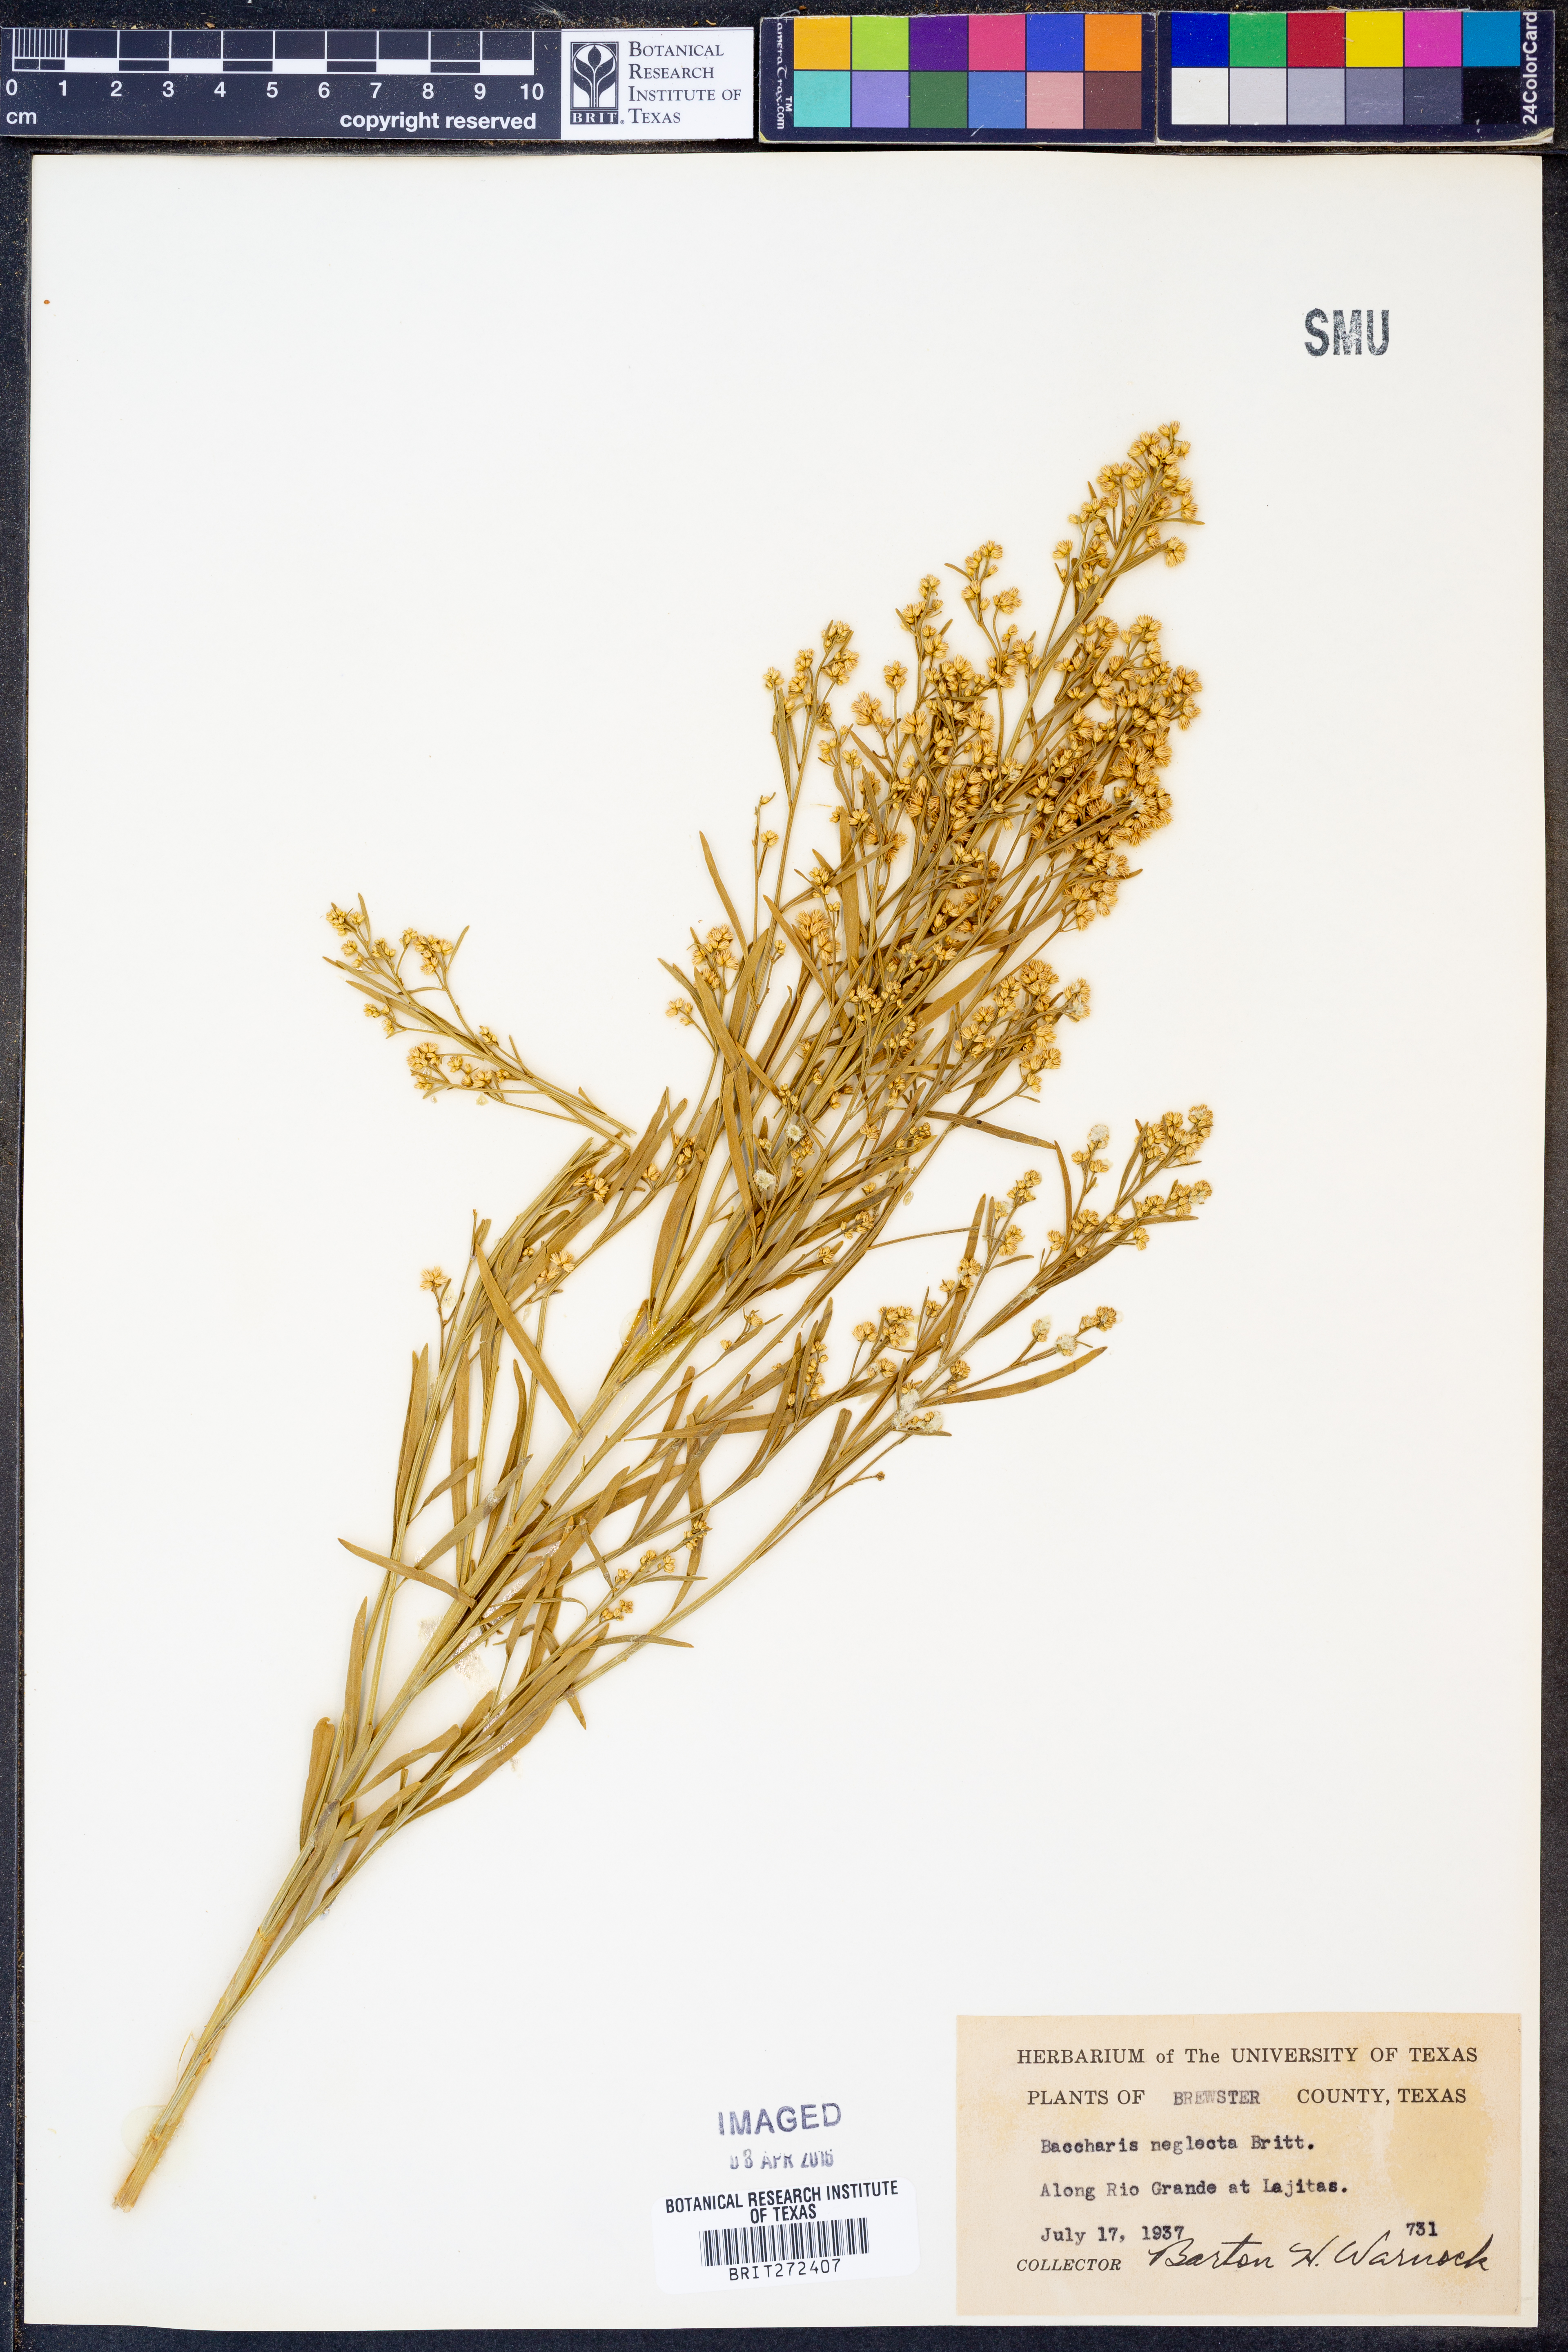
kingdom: Plantae
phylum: Tracheophyta
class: Magnoliopsida
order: Asterales
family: Asteraceae
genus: Baccharis
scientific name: Baccharis neglecta
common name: Roosevelt-weed
